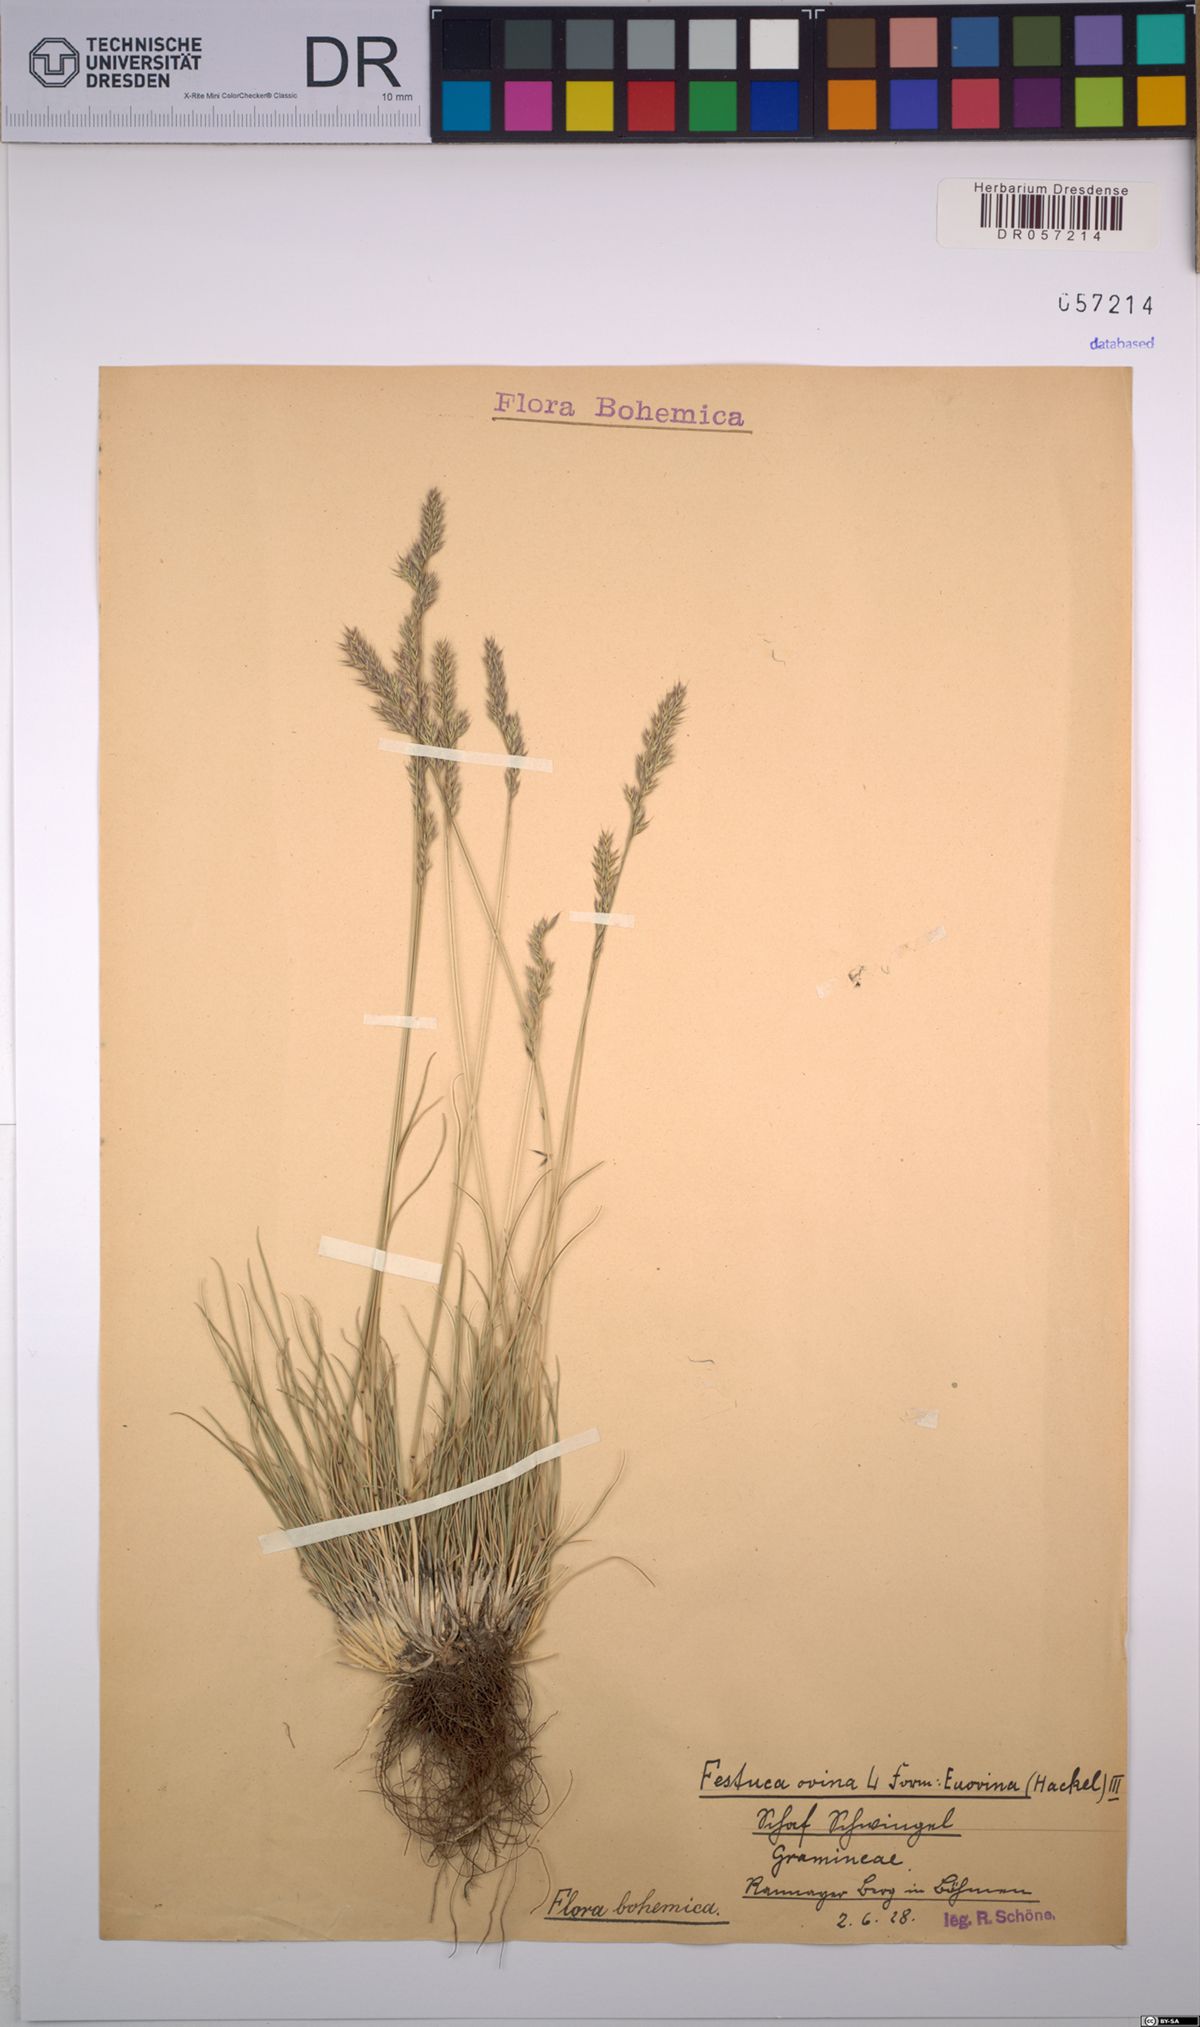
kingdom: Plantae
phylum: Tracheophyta
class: Liliopsida
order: Poales
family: Poaceae
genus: Festuca
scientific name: Festuca ovina
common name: Sheep fescue
